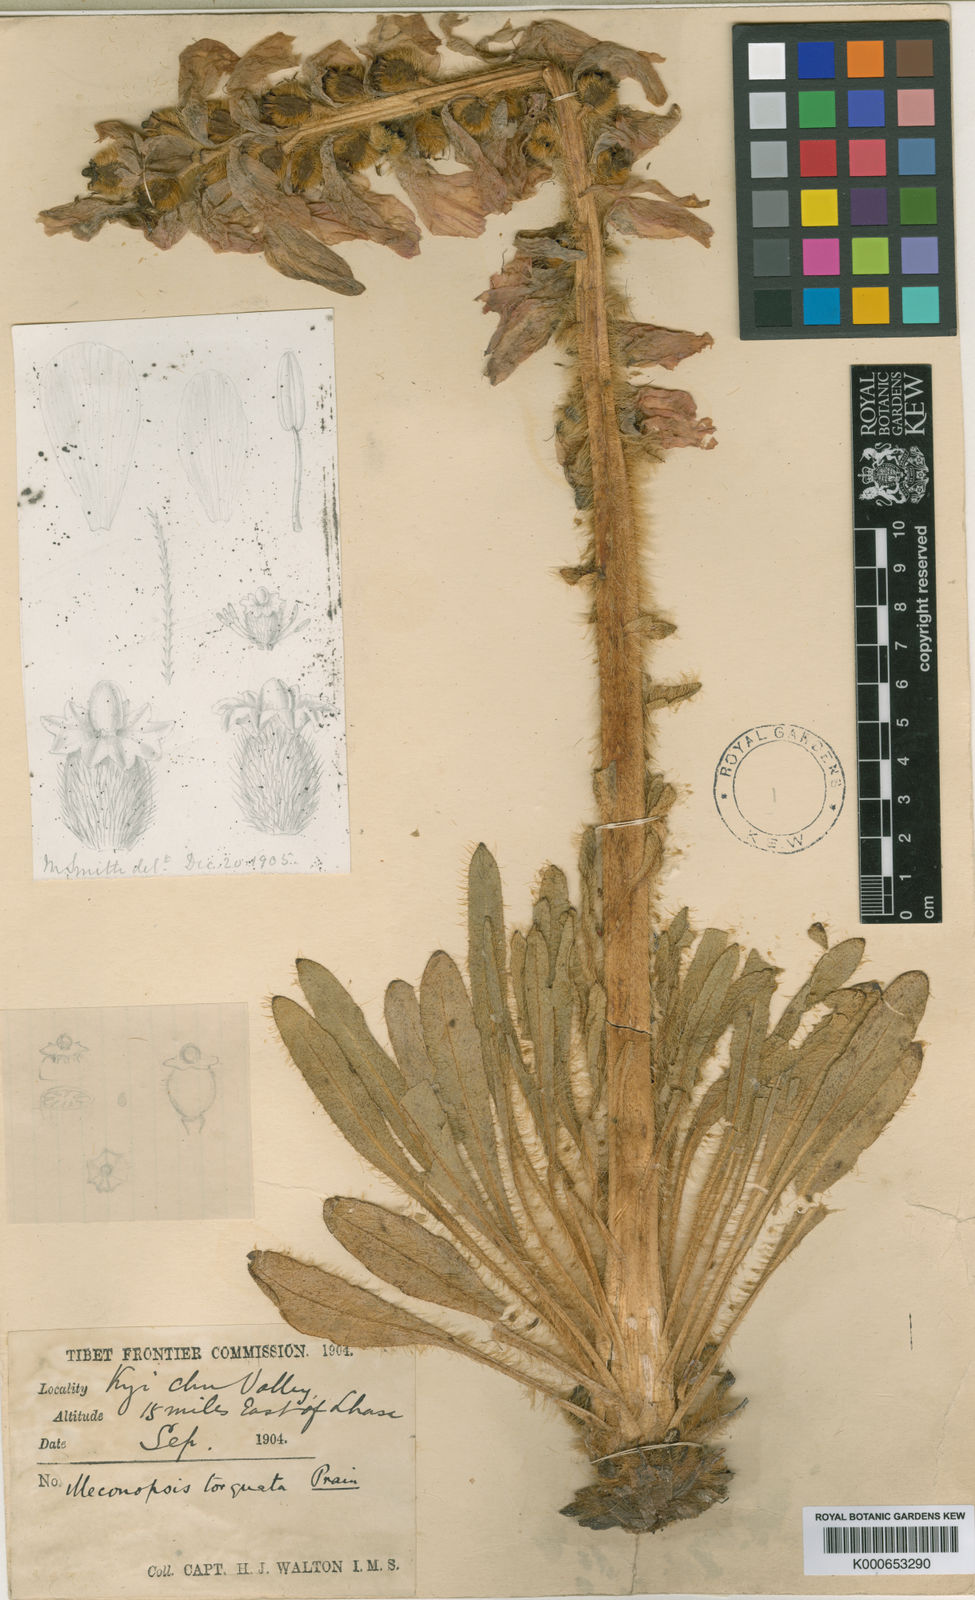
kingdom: Plantae
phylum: Tracheophyta
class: Magnoliopsida
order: Ranunculales
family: Papaveraceae
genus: Meconopsis
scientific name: Meconopsis torquata
